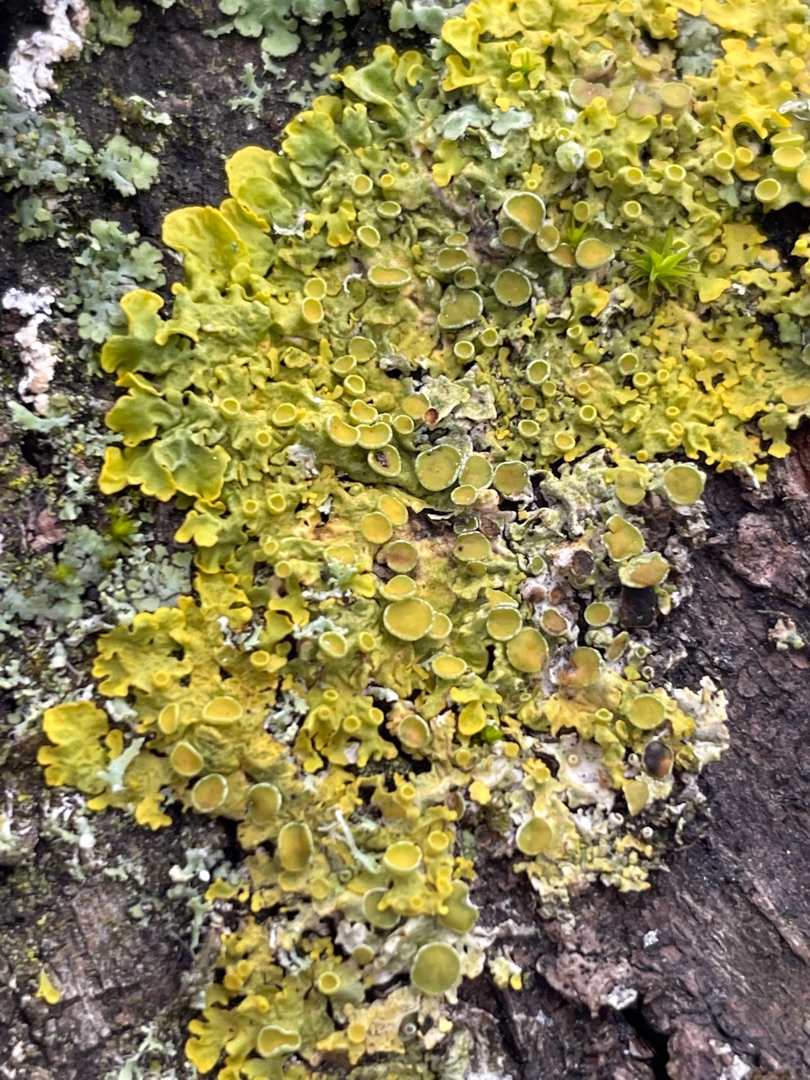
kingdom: Fungi
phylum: Ascomycota
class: Lecanoromycetes
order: Teloschistales
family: Teloschistaceae
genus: Xanthoria
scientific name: Xanthoria parietina
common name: Almindelig væggelav
